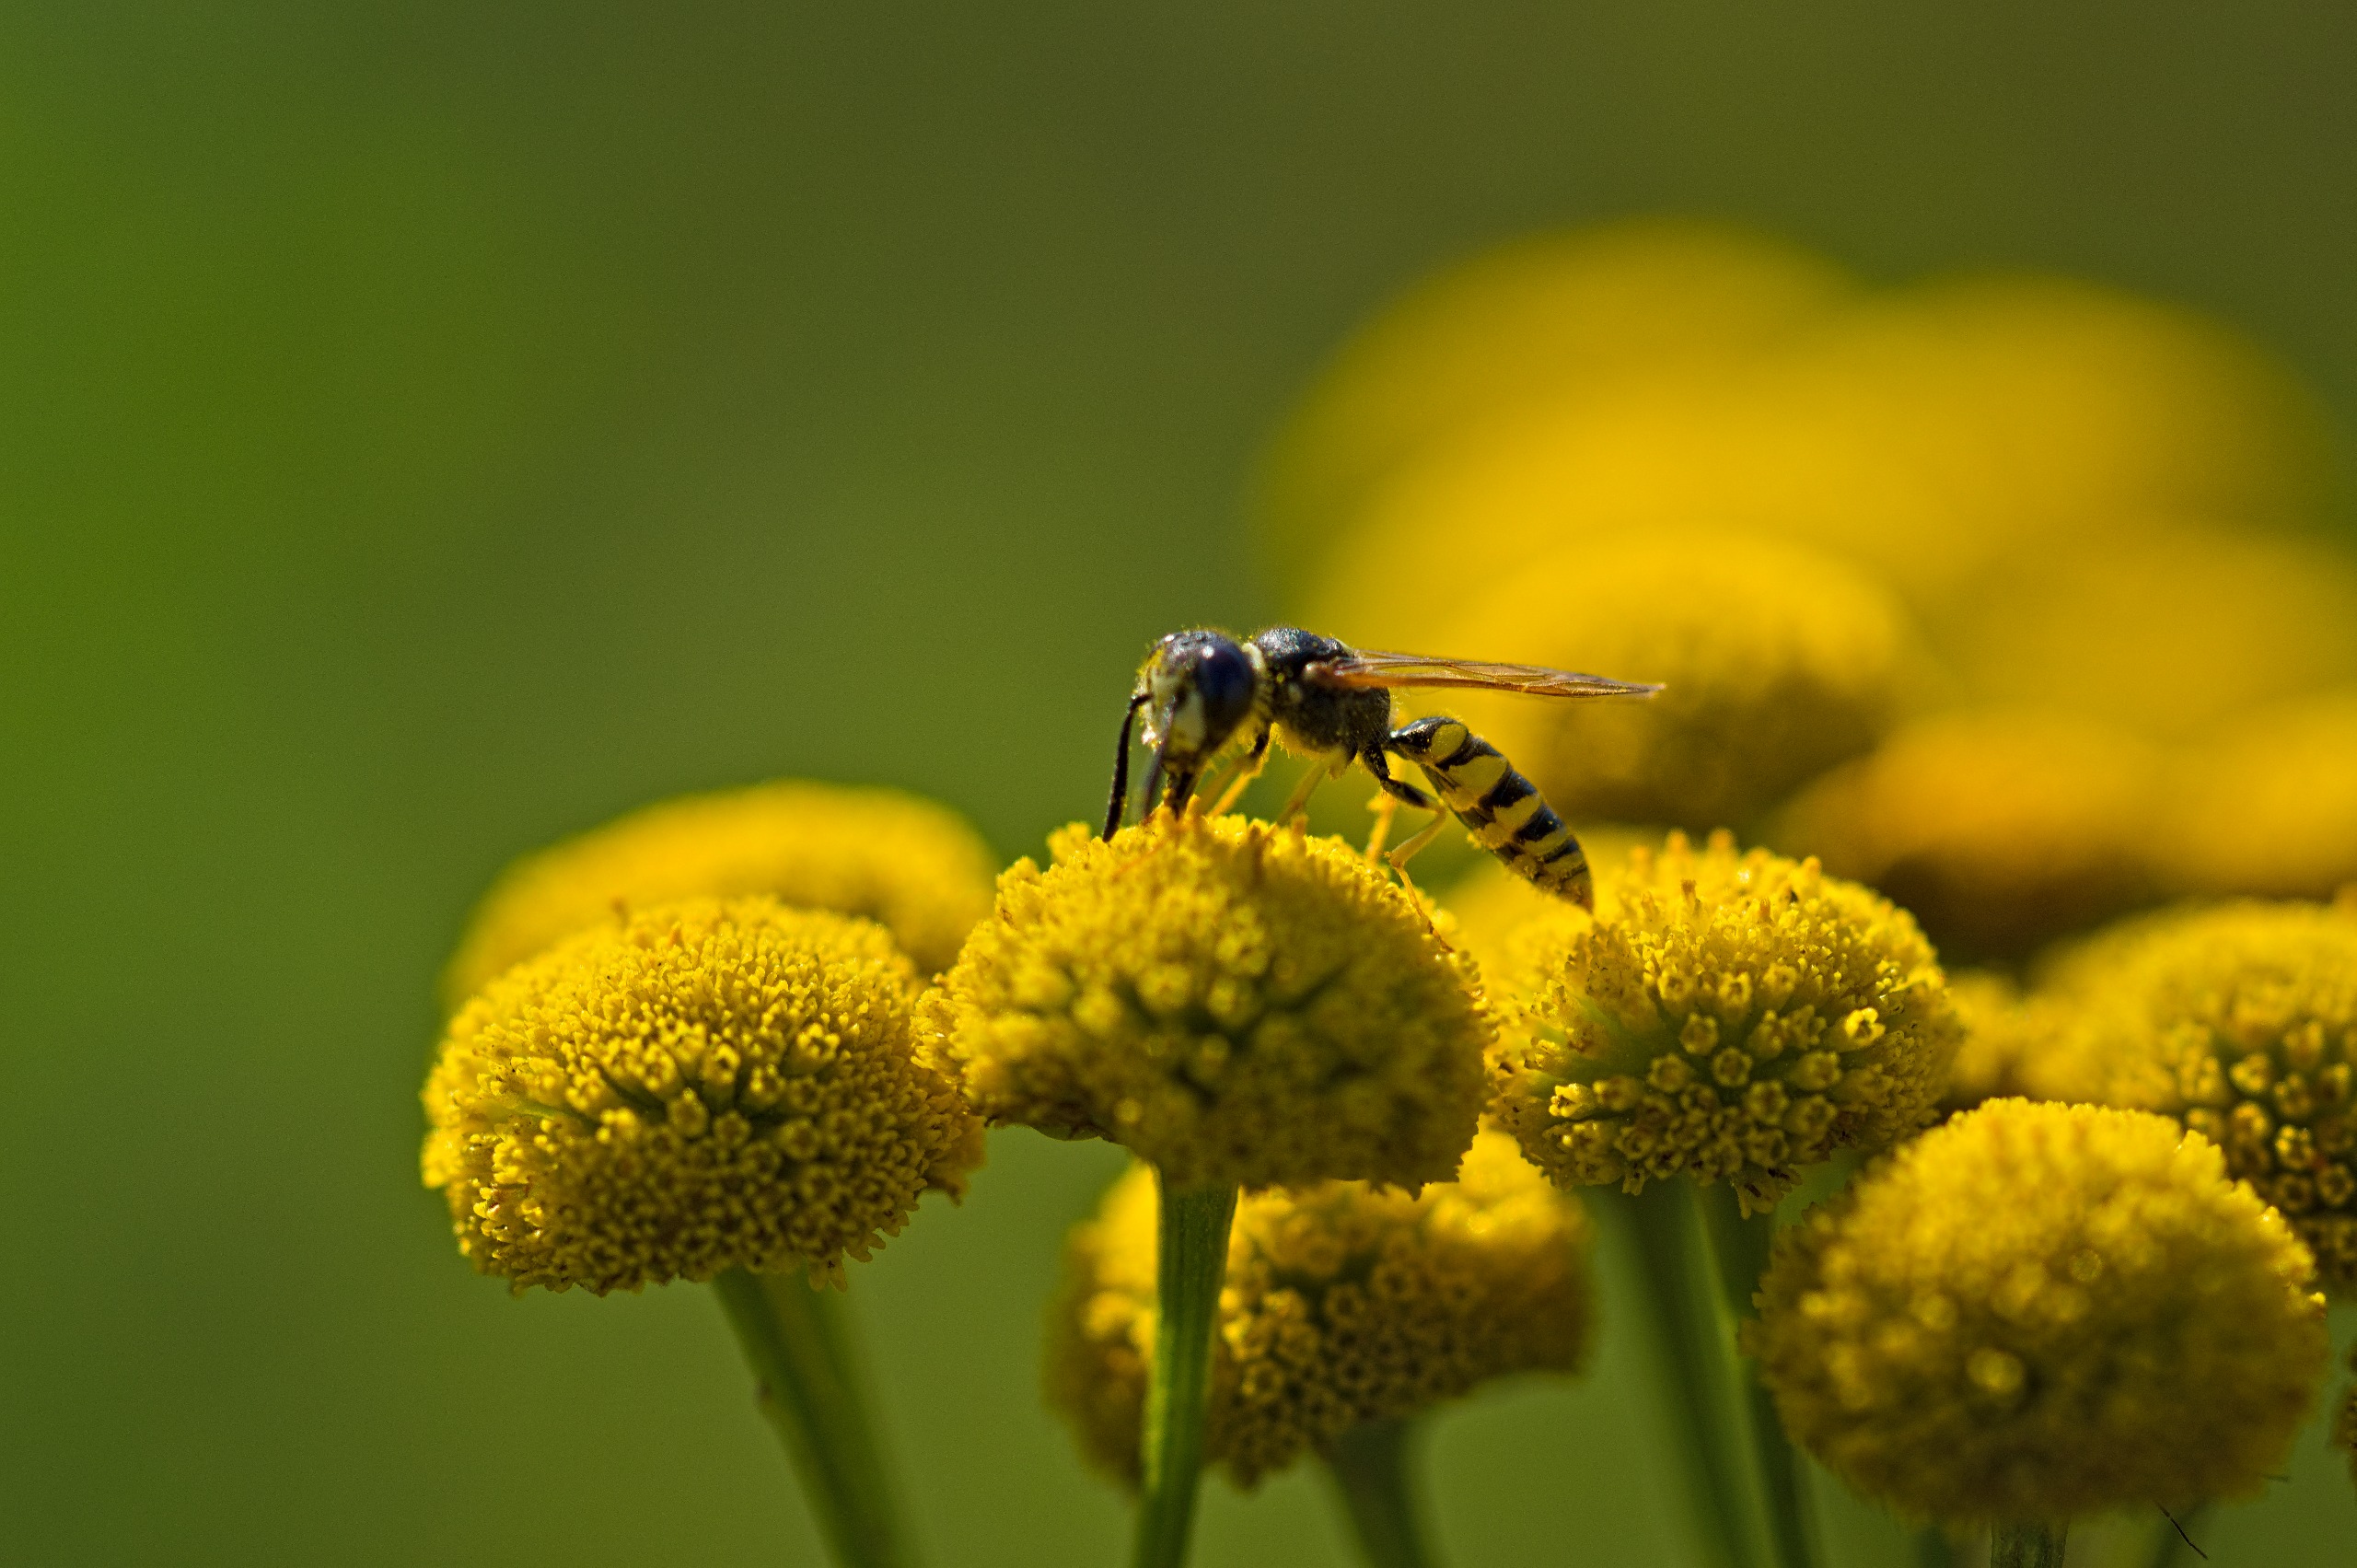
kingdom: Animalia
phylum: Arthropoda
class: Insecta
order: Hymenoptera
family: Crabronidae
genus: Philanthus
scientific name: Philanthus triangulum
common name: Biulv
